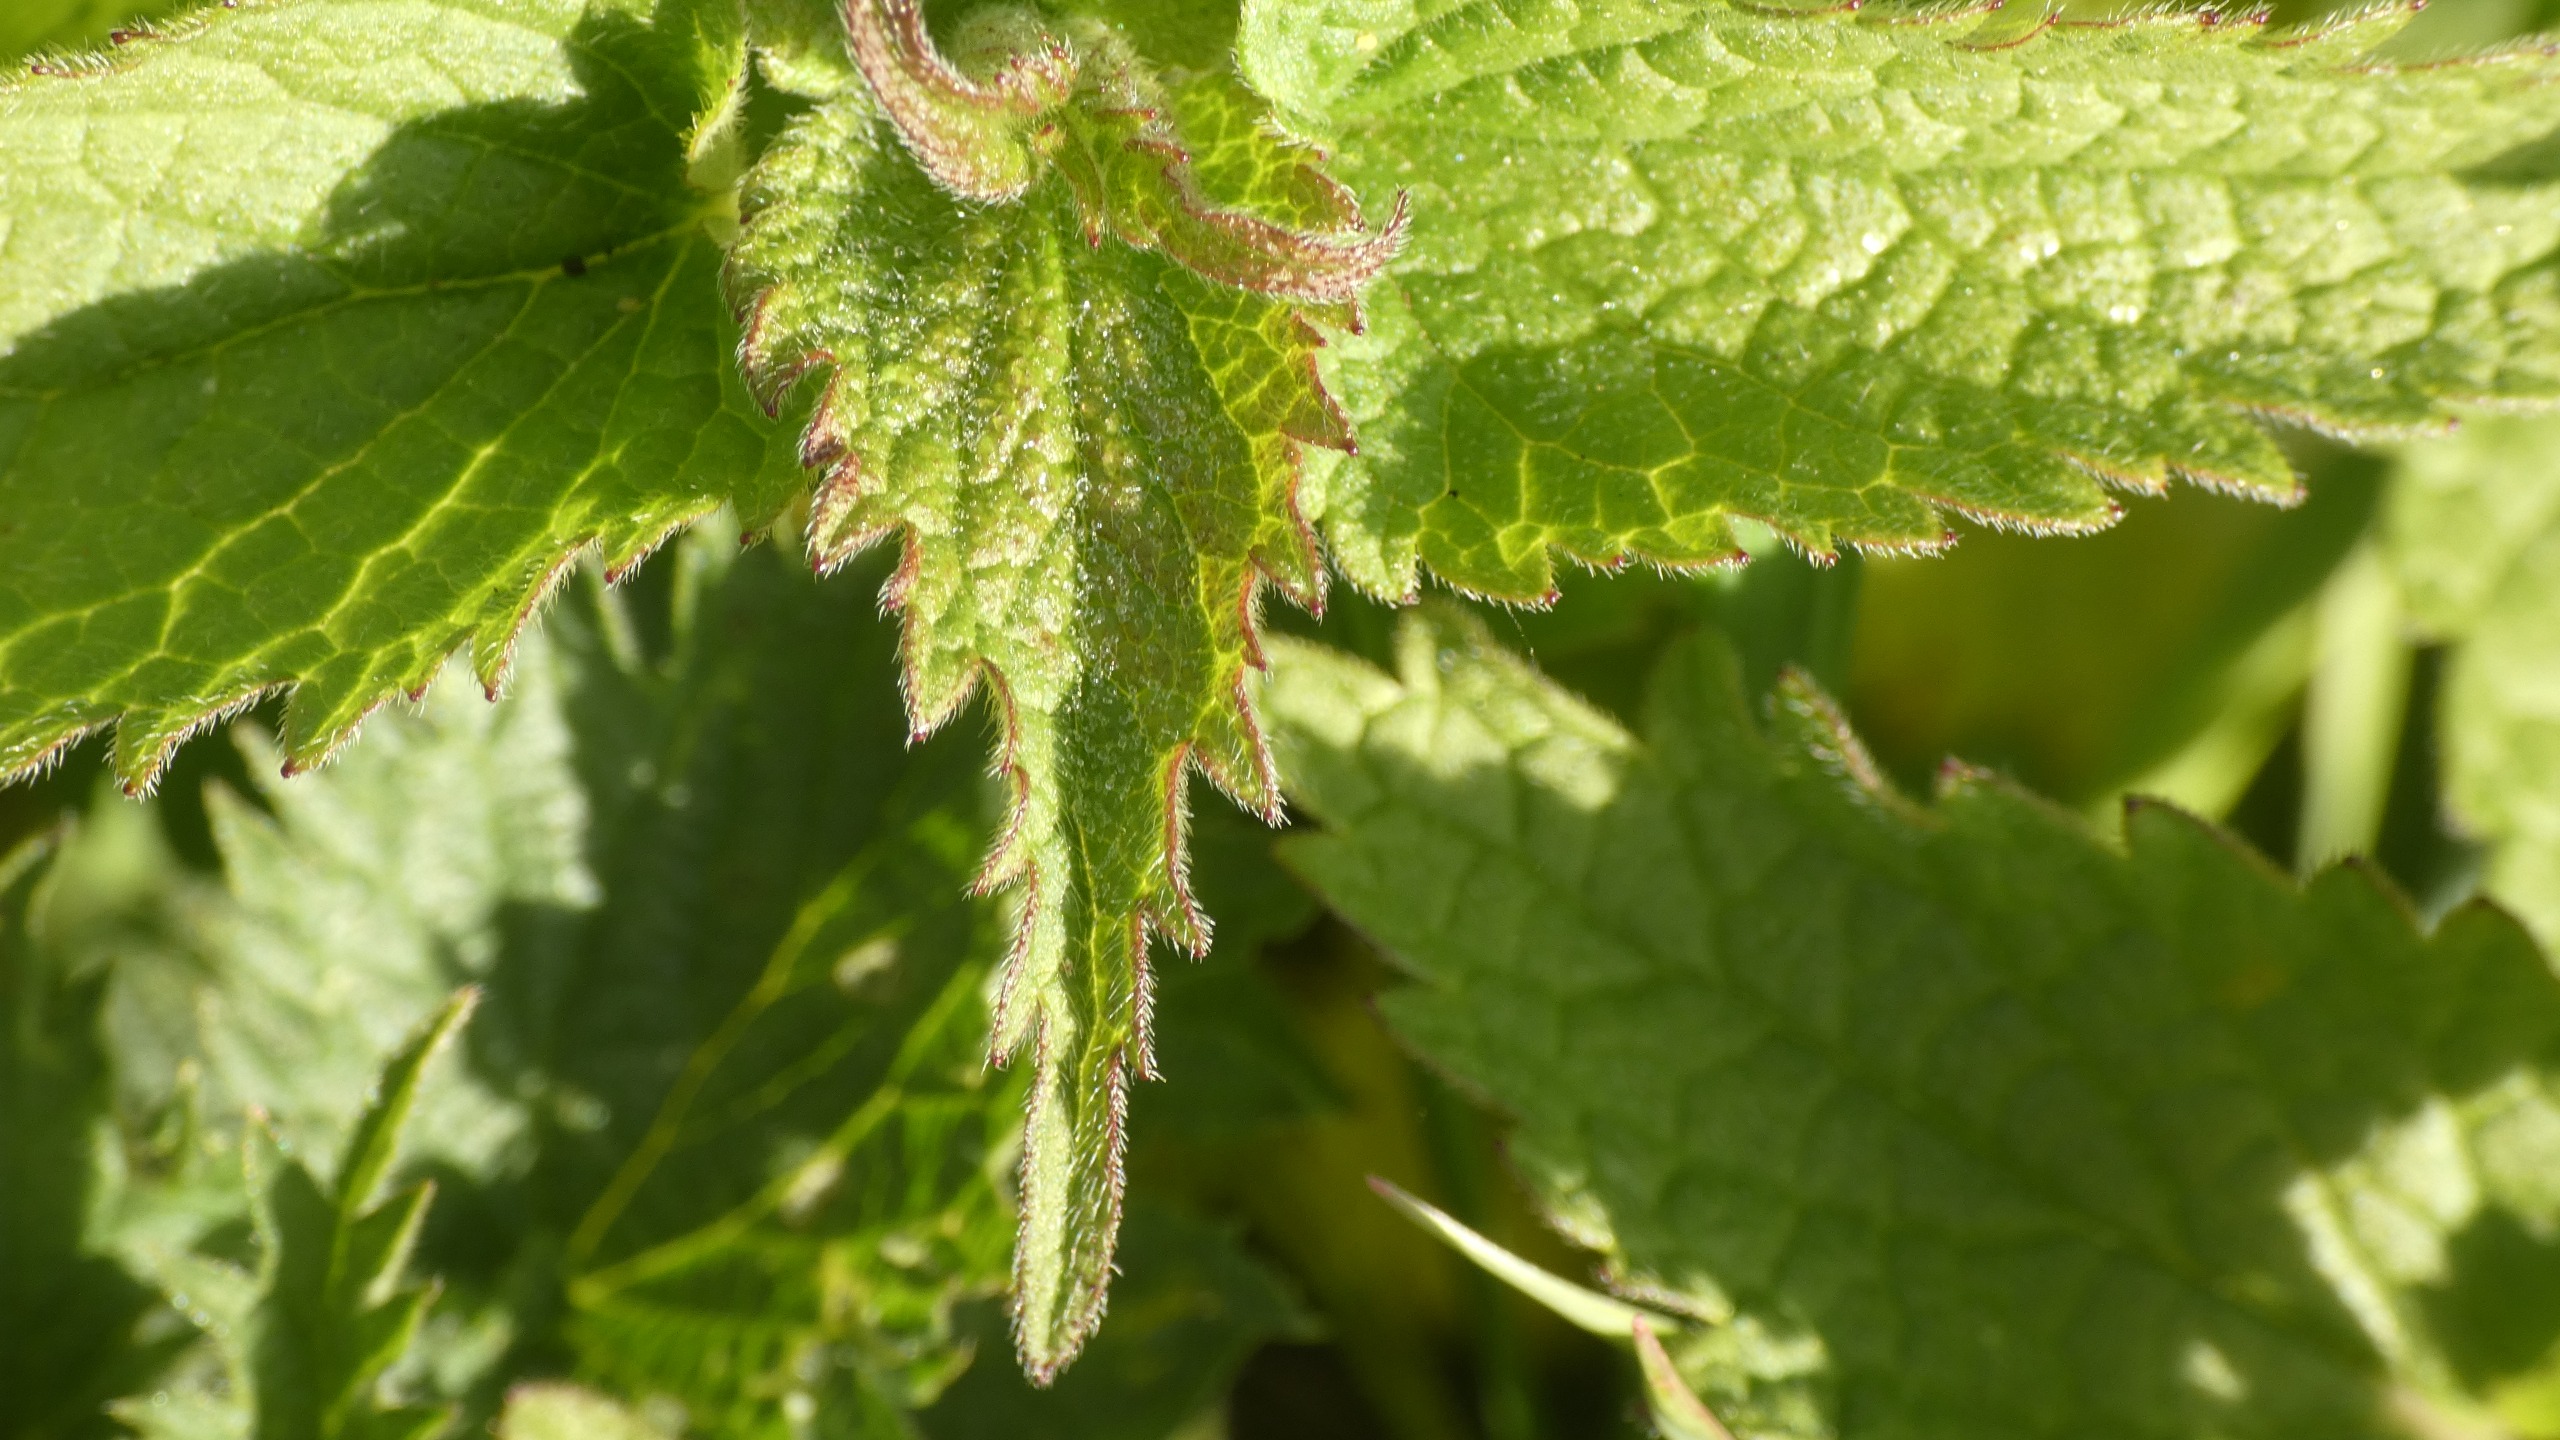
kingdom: Plantae
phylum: Tracheophyta
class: Magnoliopsida
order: Lamiales
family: Lamiaceae
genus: Lamium
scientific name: Lamium album
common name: Døvnælde
